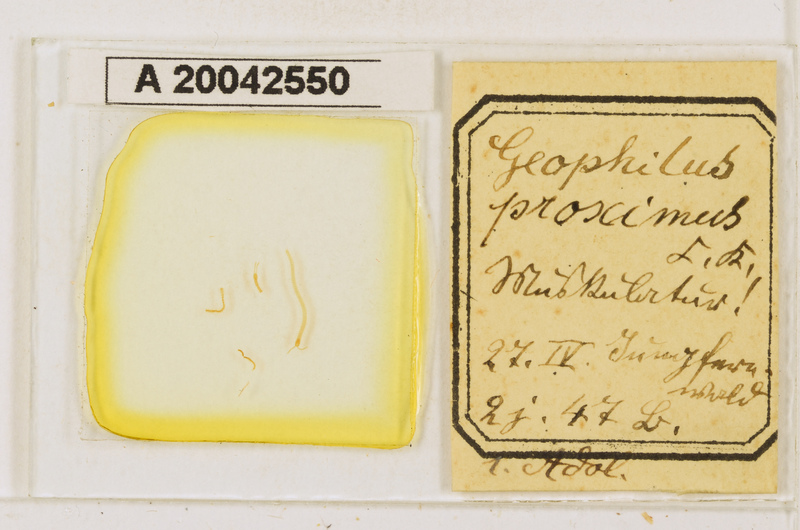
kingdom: Animalia
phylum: Arthropoda
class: Chilopoda
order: Geophilomorpha
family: Geophilidae
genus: Geophilus
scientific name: Geophilus proximus
